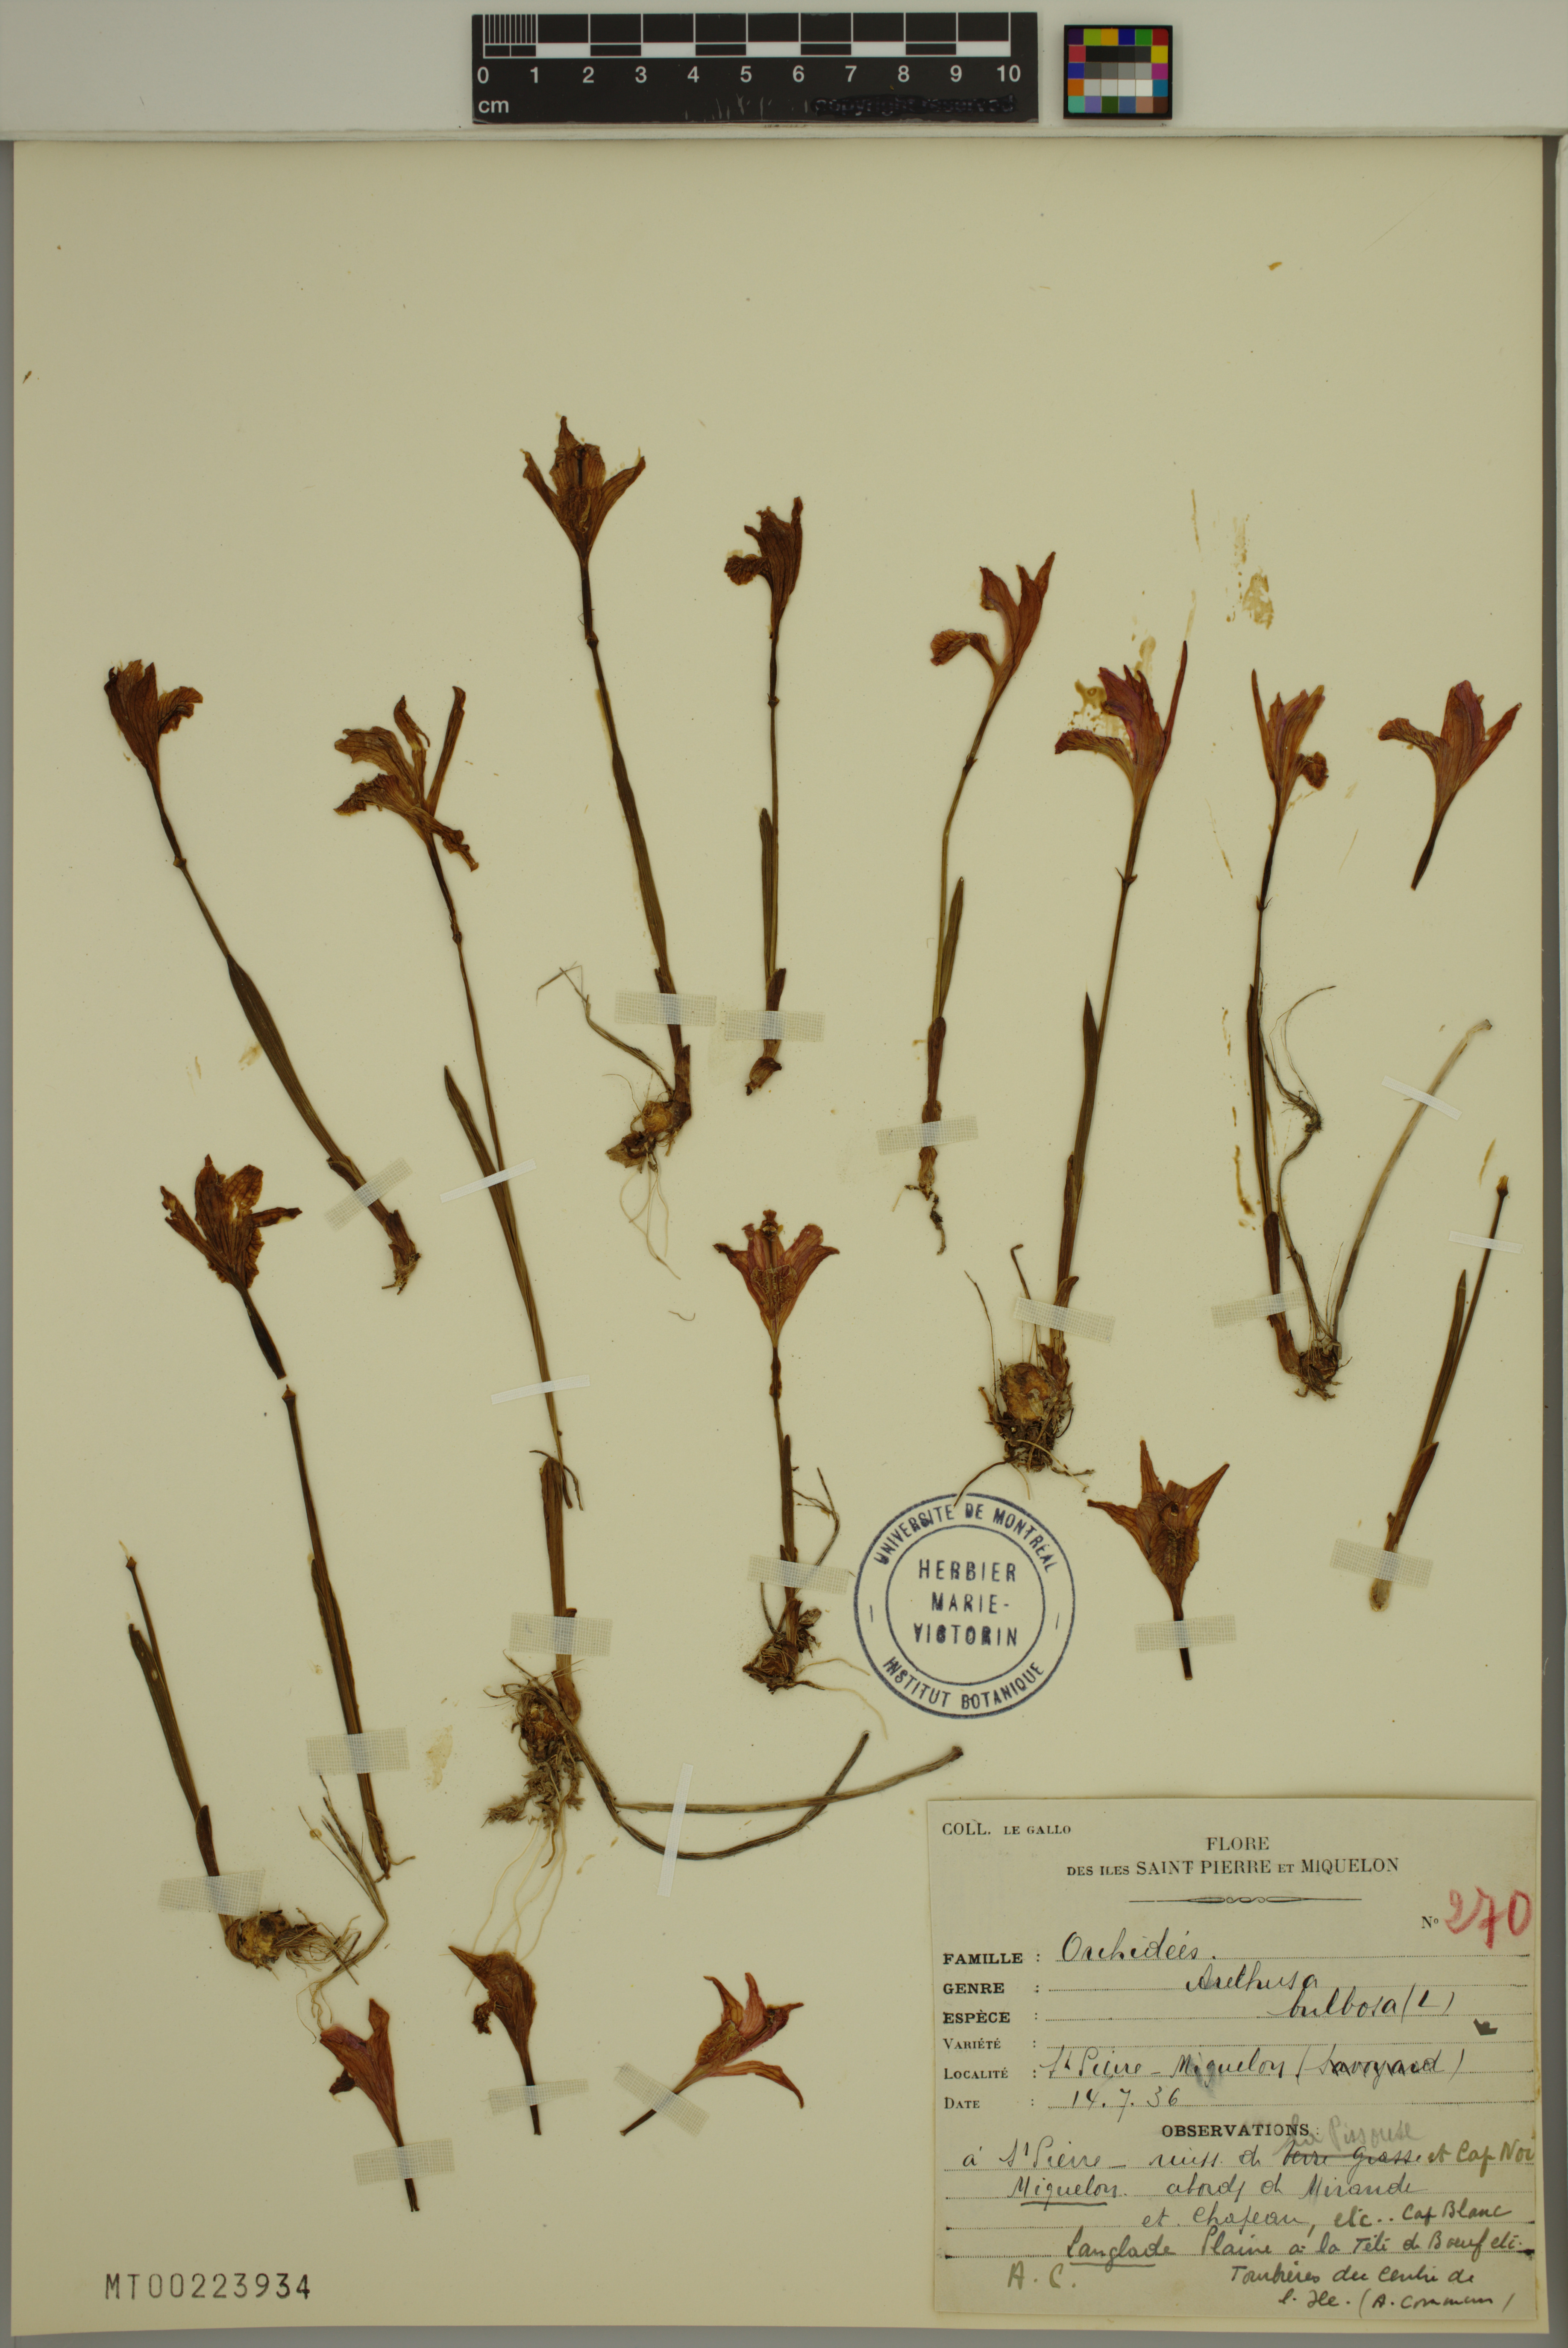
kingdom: Plantae
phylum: Tracheophyta
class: Liliopsida
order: Asparagales
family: Orchidaceae
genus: Arethusa
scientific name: Arethusa bulbosa
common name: Arethusa
